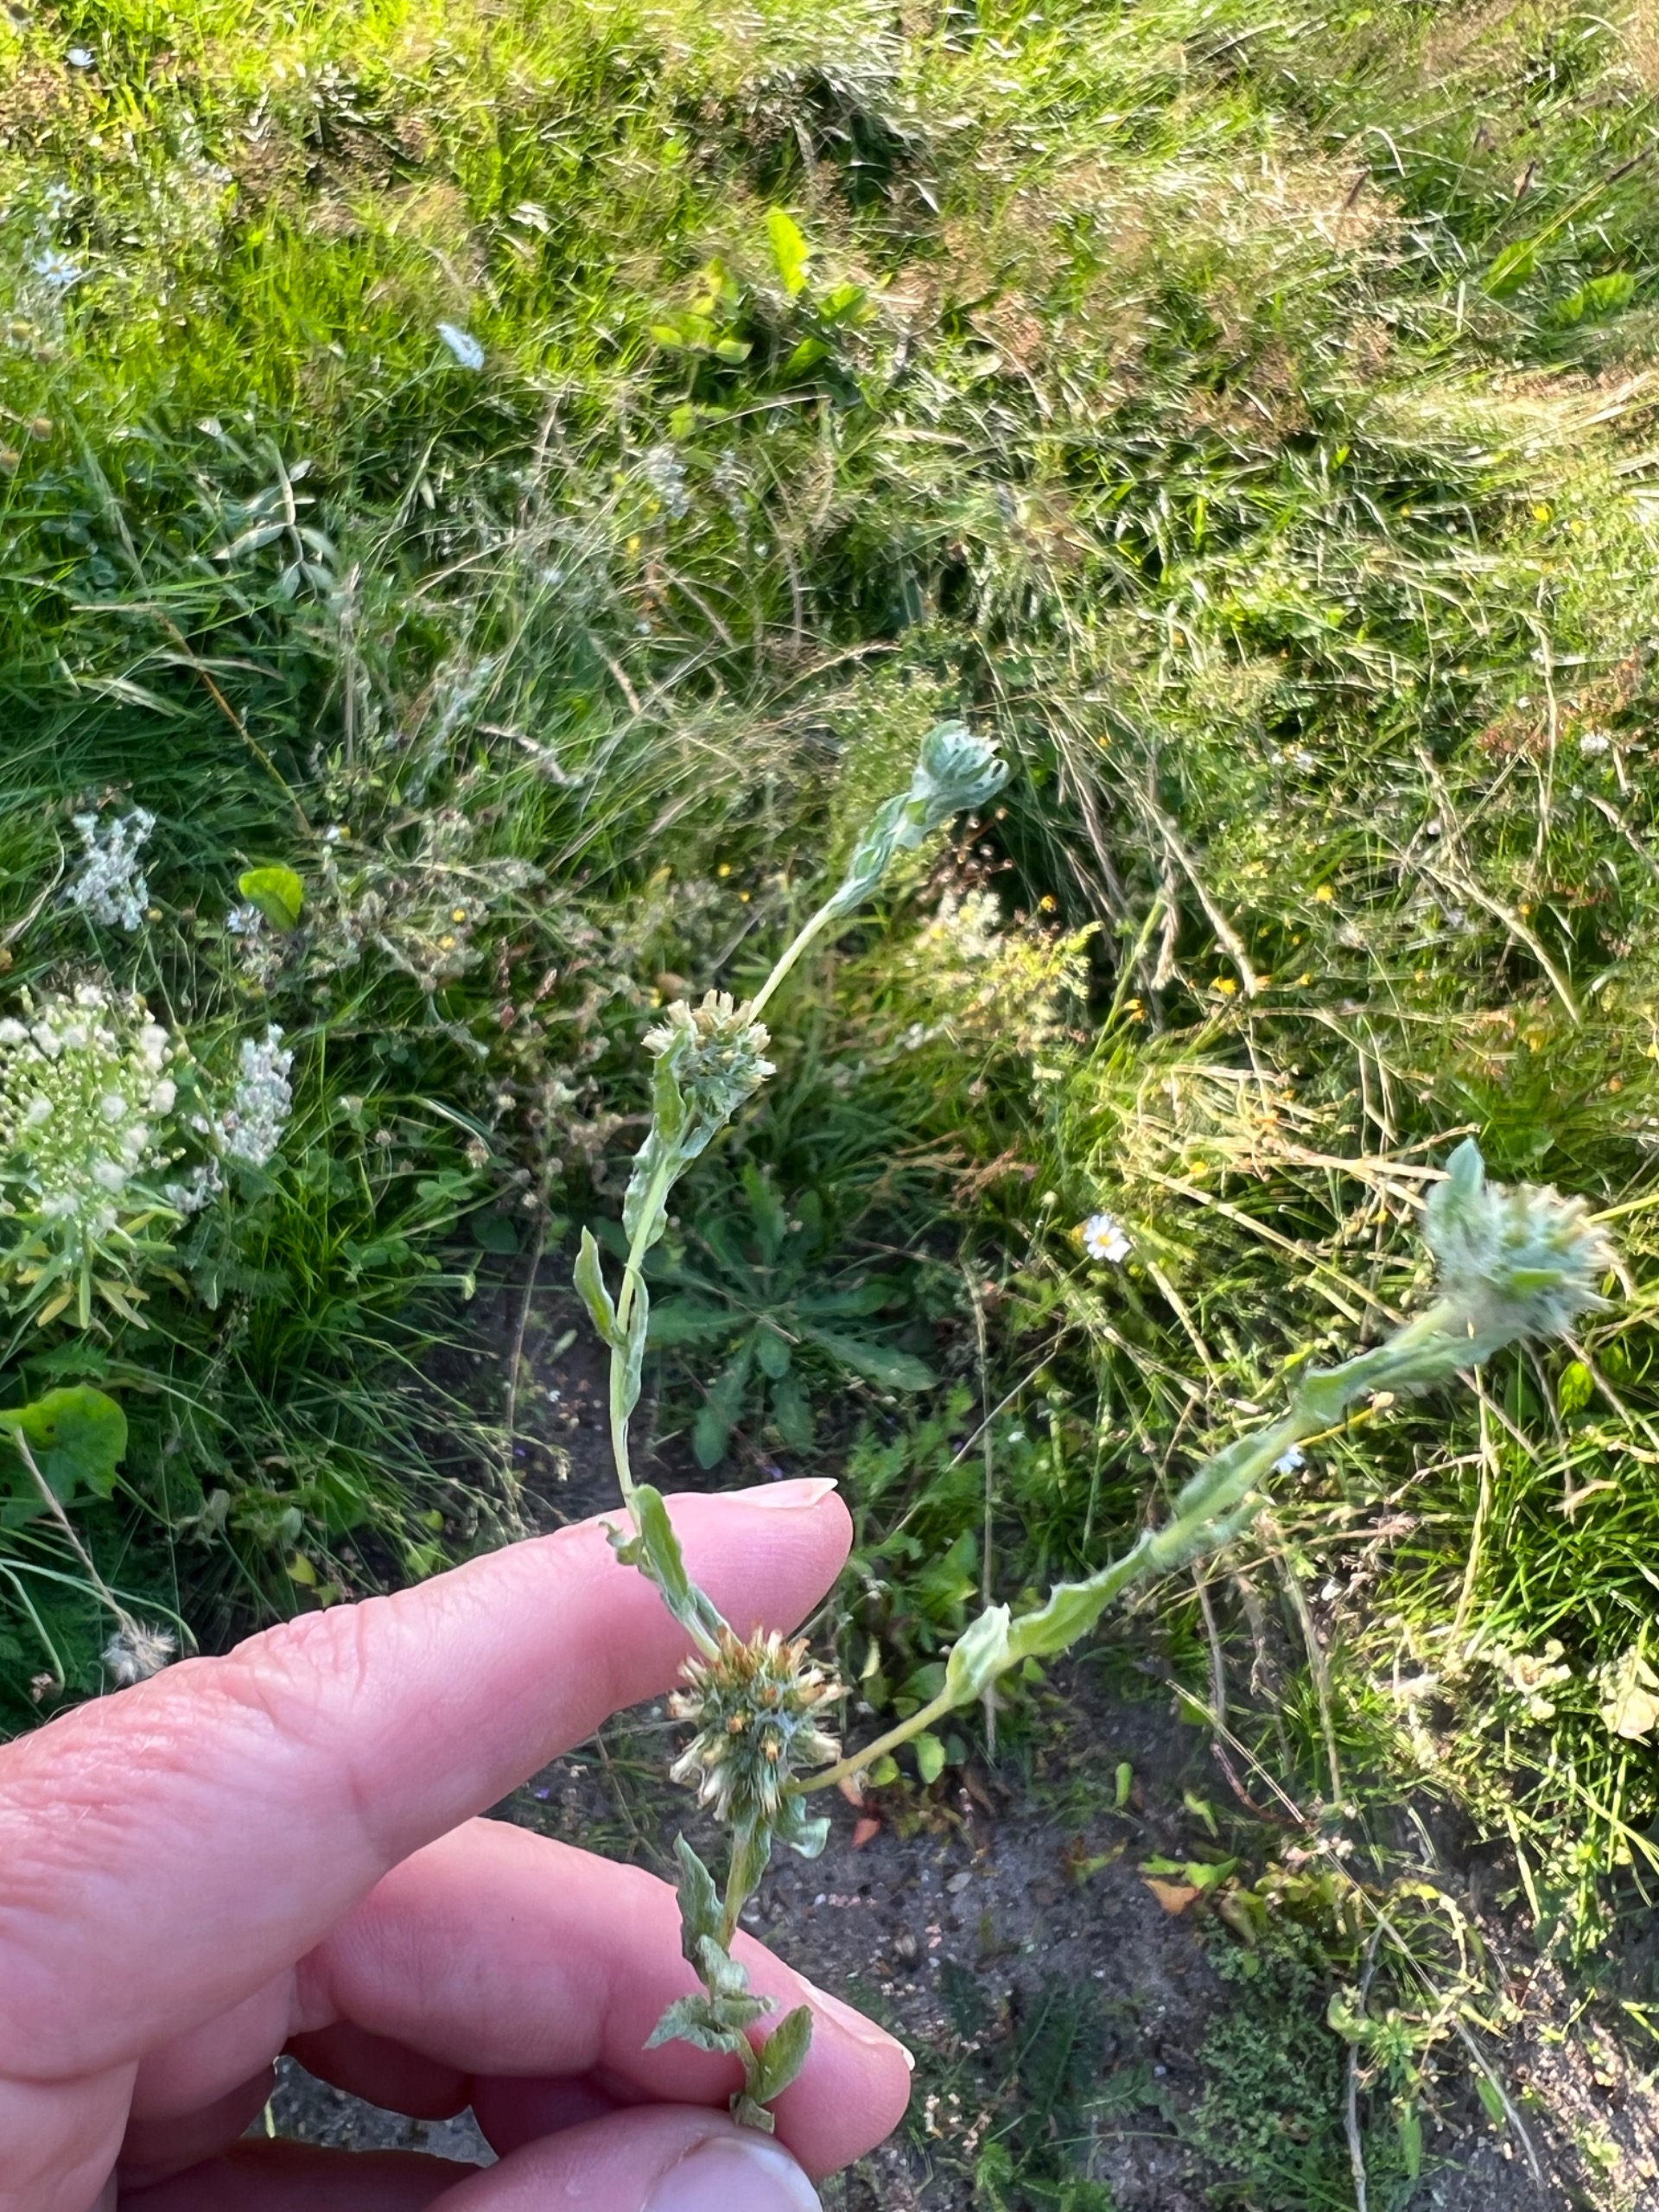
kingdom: Plantae
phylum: Tracheophyta
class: Magnoliopsida
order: Asterales
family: Asteraceae
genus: Filago
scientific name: Filago germanica
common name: Kugle-museurt
